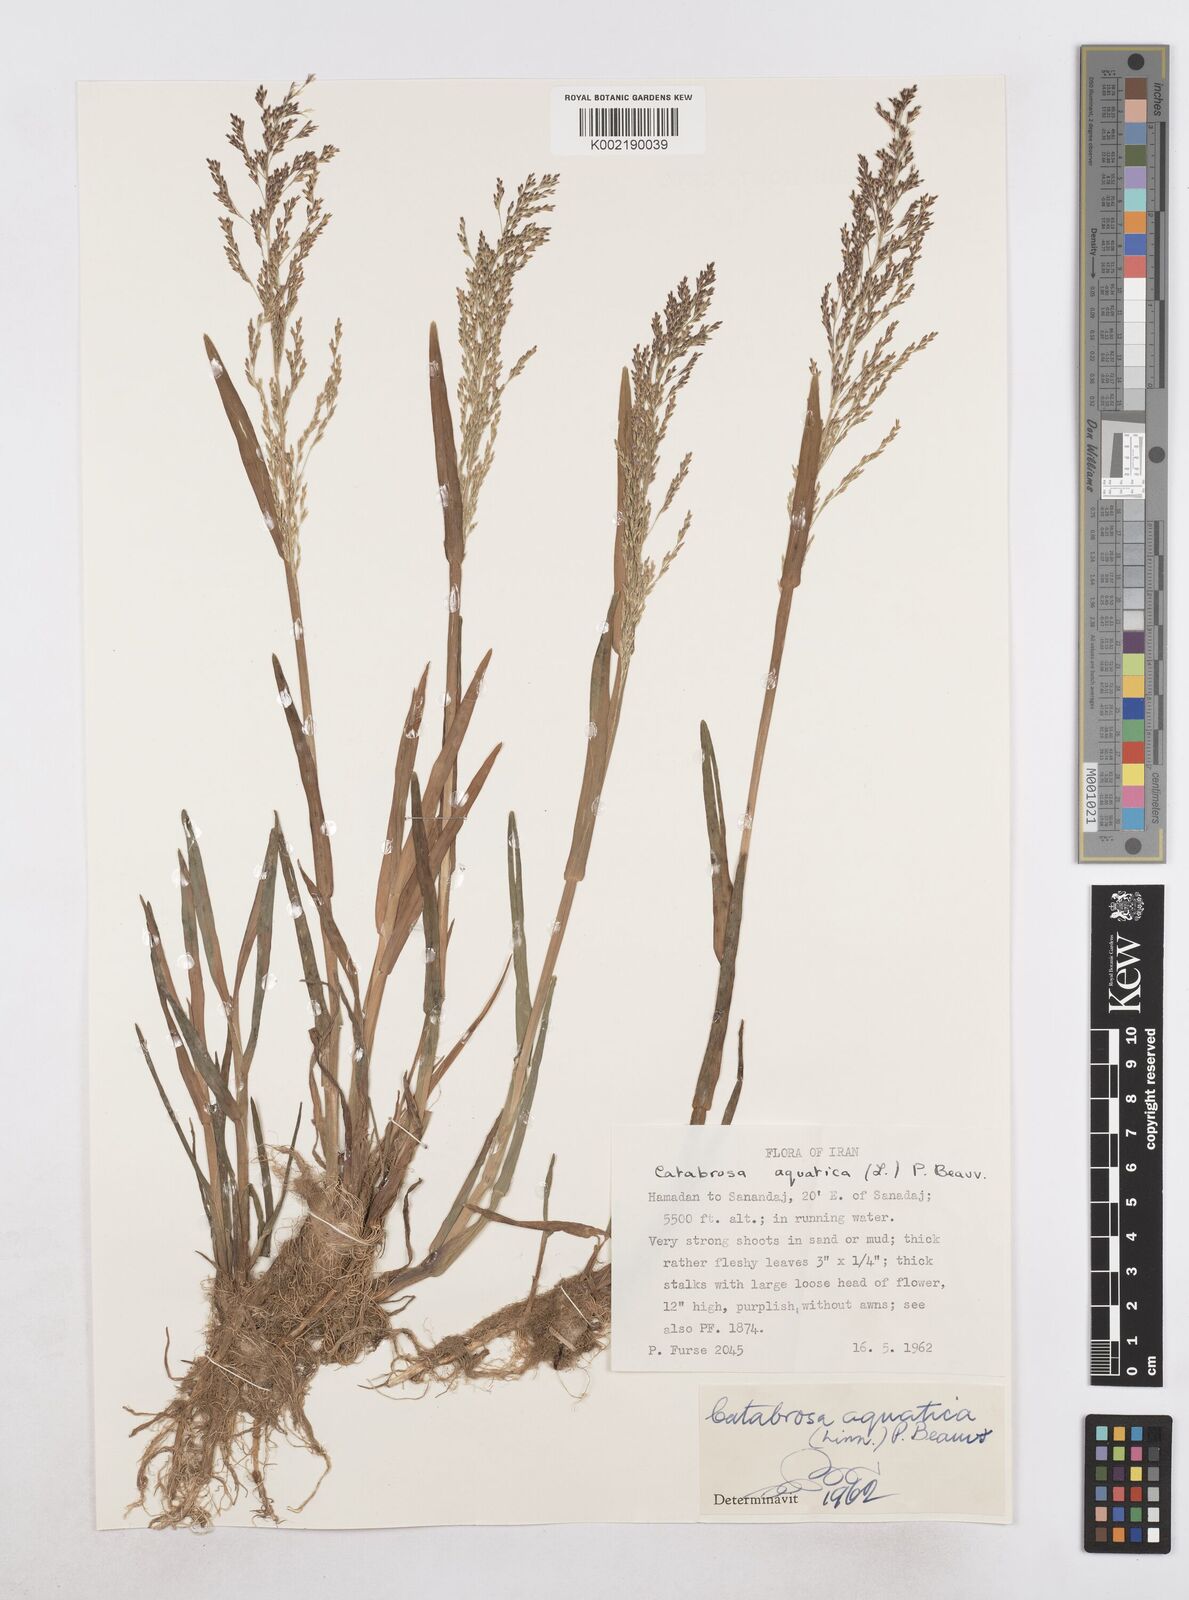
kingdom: Plantae
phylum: Tracheophyta
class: Liliopsida
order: Poales
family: Poaceae
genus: Catabrosa
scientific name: Catabrosa aquatica
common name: Whorl-grass
